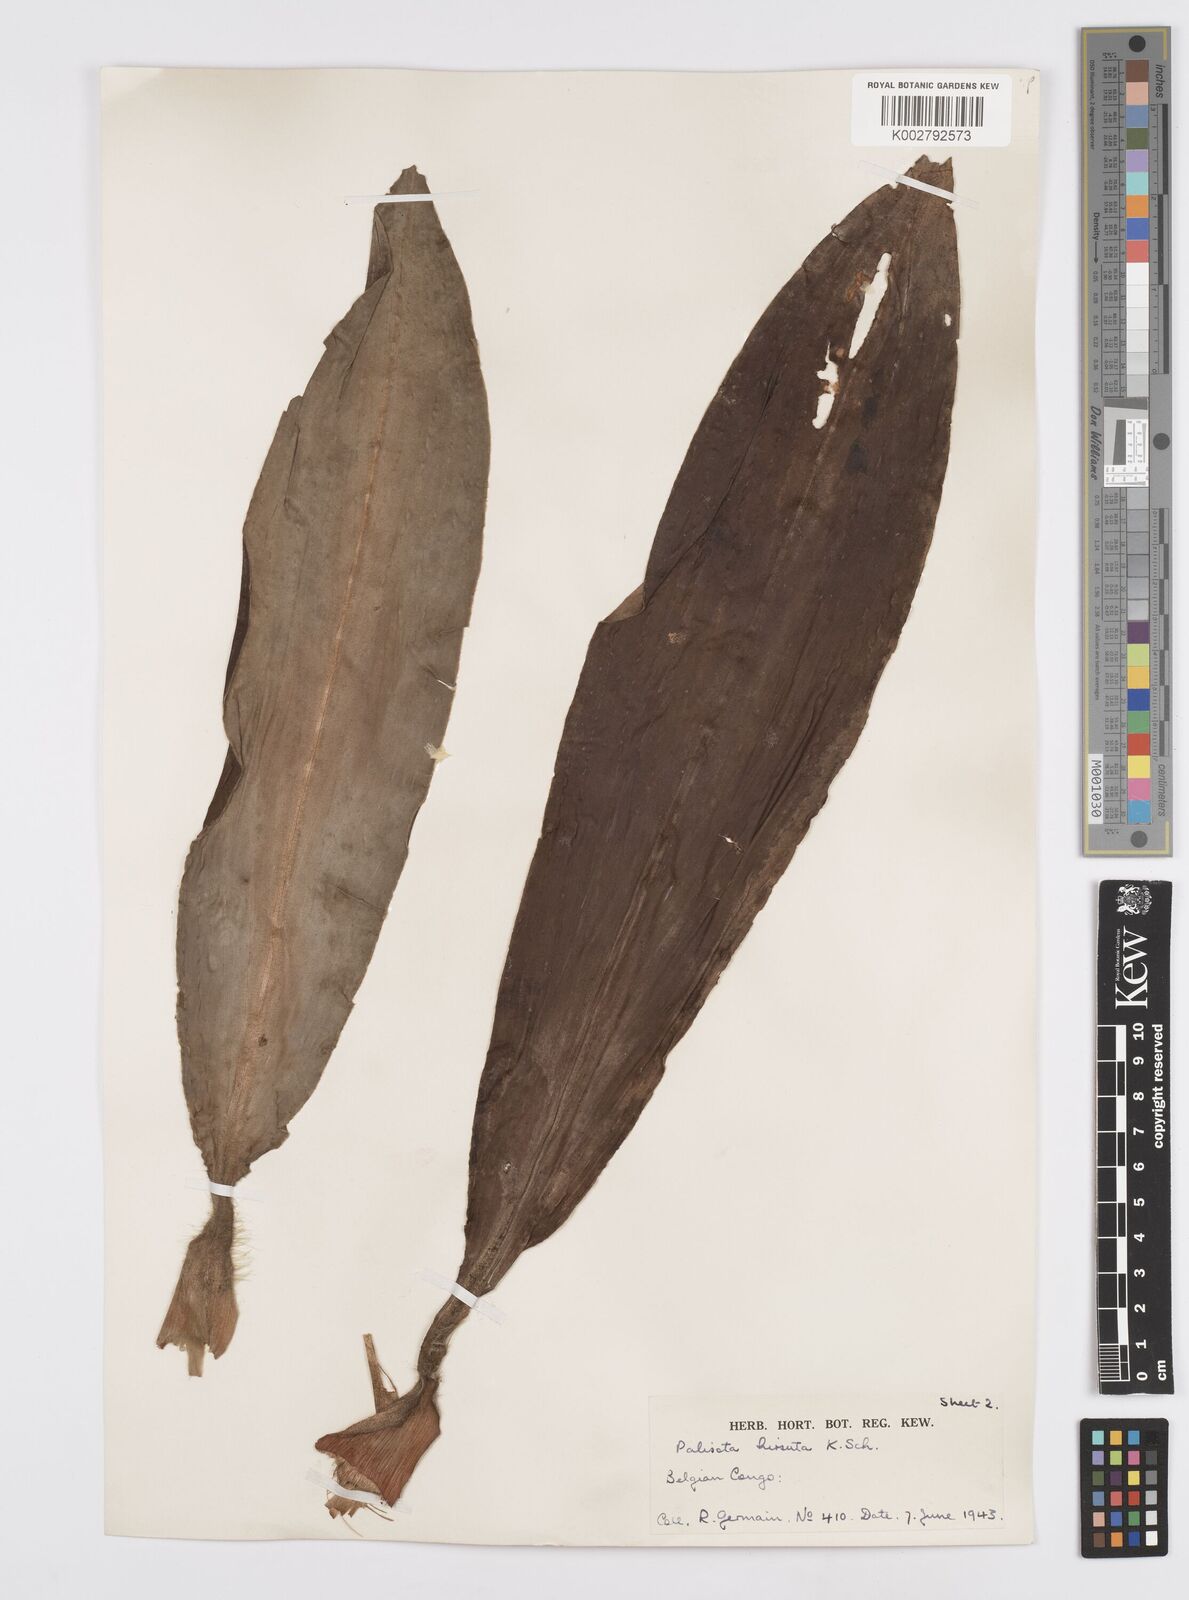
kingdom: Plantae
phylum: Tracheophyta
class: Liliopsida
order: Commelinales
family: Commelinaceae
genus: Palisota
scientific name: Palisota hirsuta
